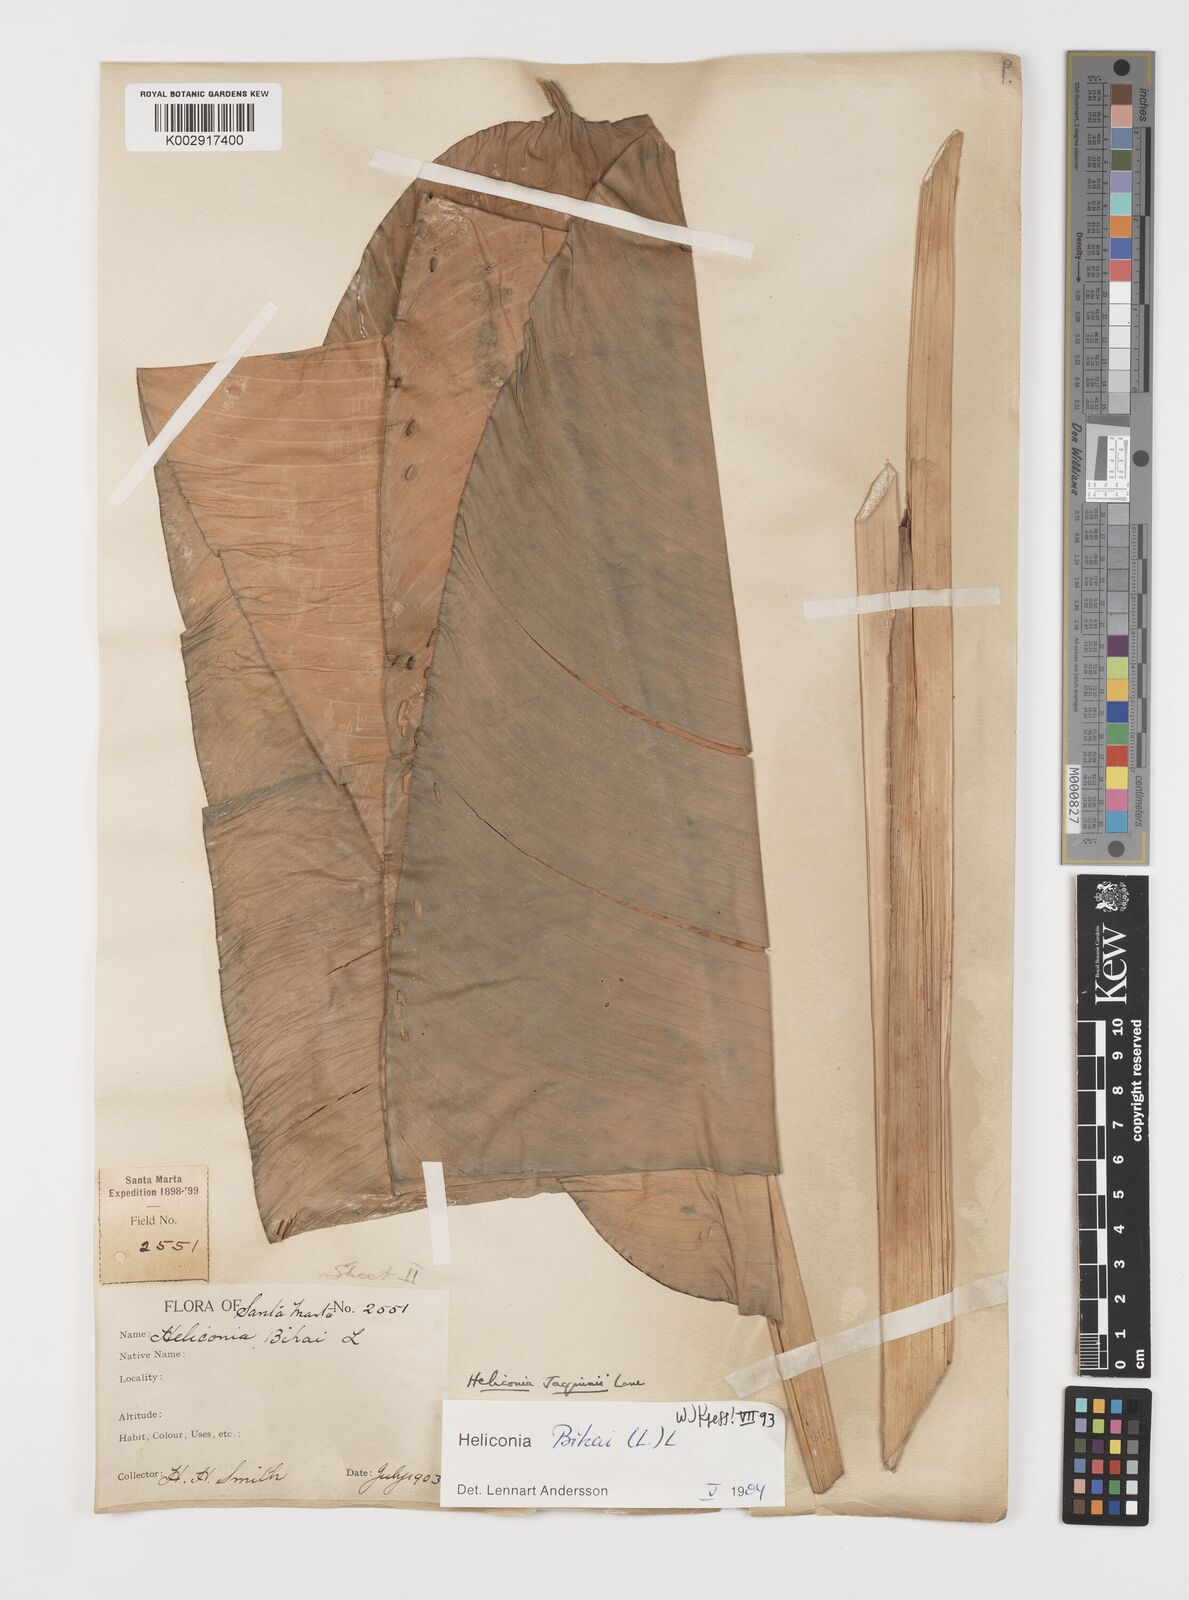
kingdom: Plantae
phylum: Tracheophyta
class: Liliopsida
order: Zingiberales
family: Heliconiaceae
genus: Heliconia
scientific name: Heliconia bihai
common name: Macaw flower
